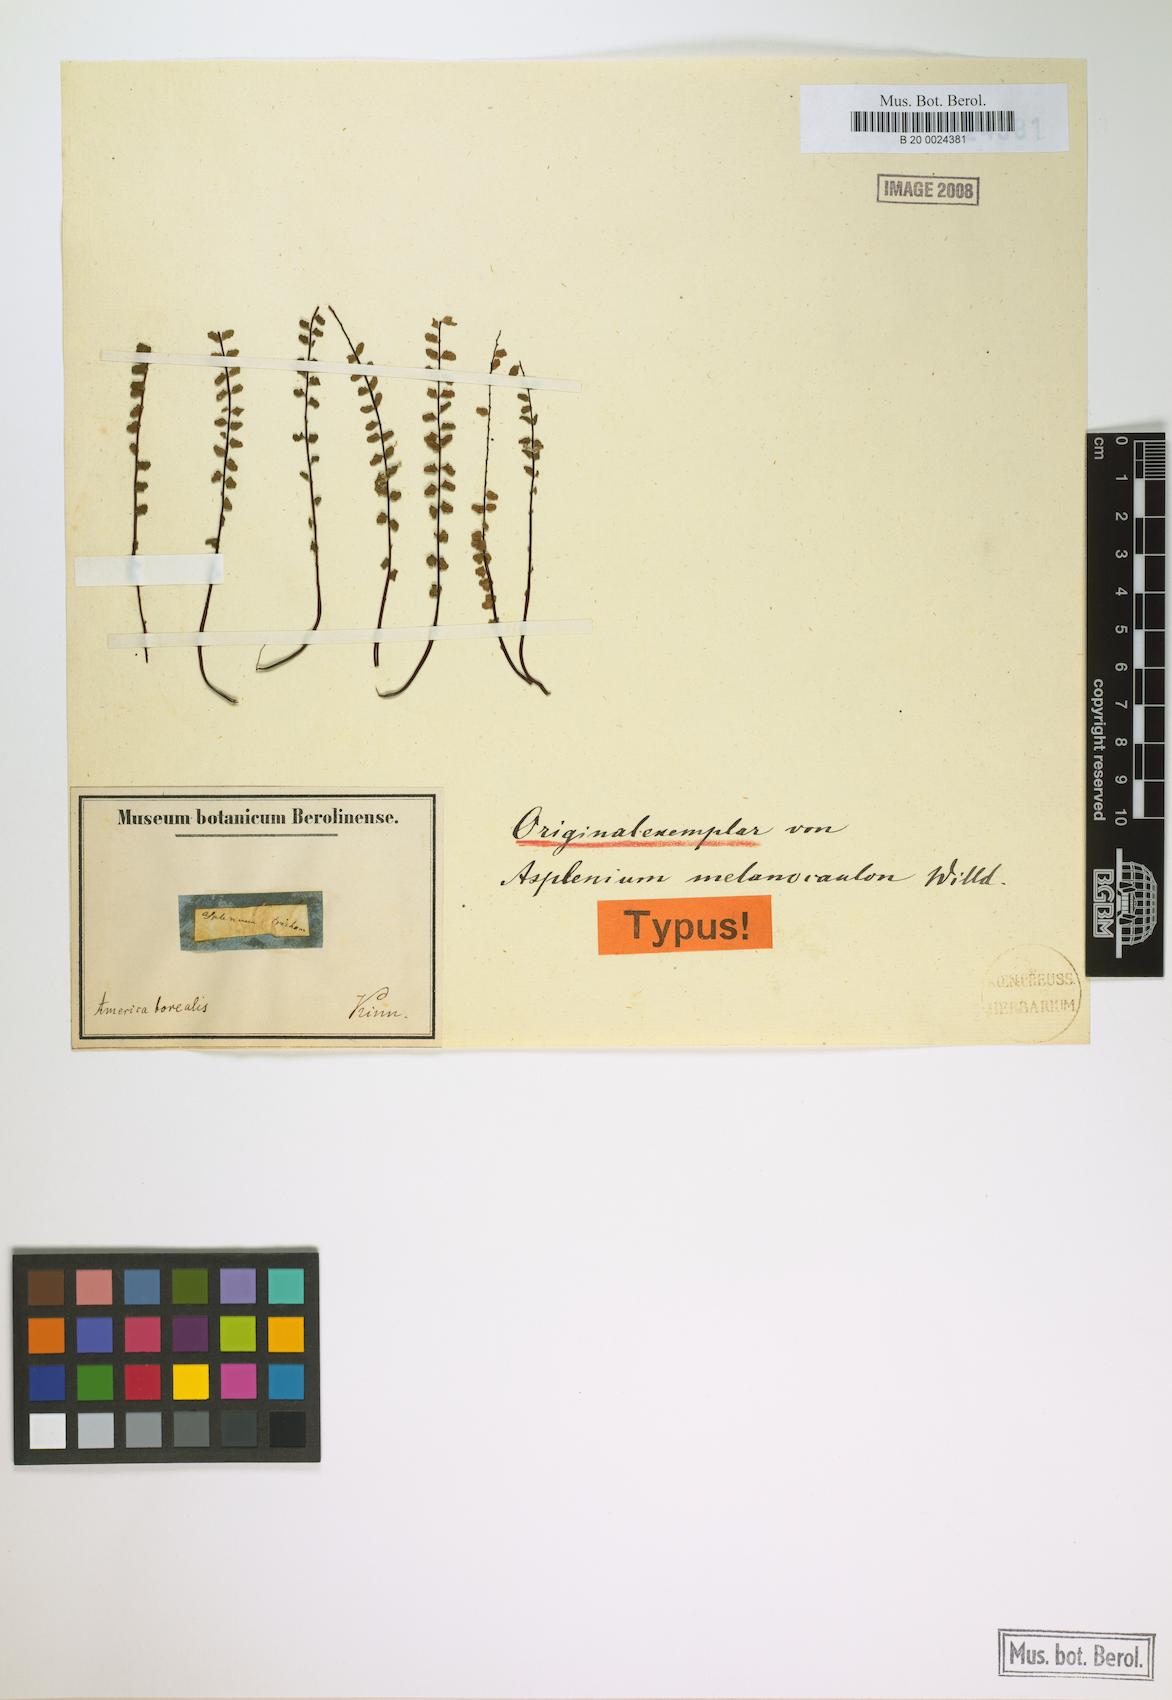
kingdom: Plantae
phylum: Tracheophyta
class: Polypodiopsida
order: Polypodiales
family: Aspleniaceae
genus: Asplenium
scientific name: Asplenium trichomanes
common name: Maidenhair spleenwort
